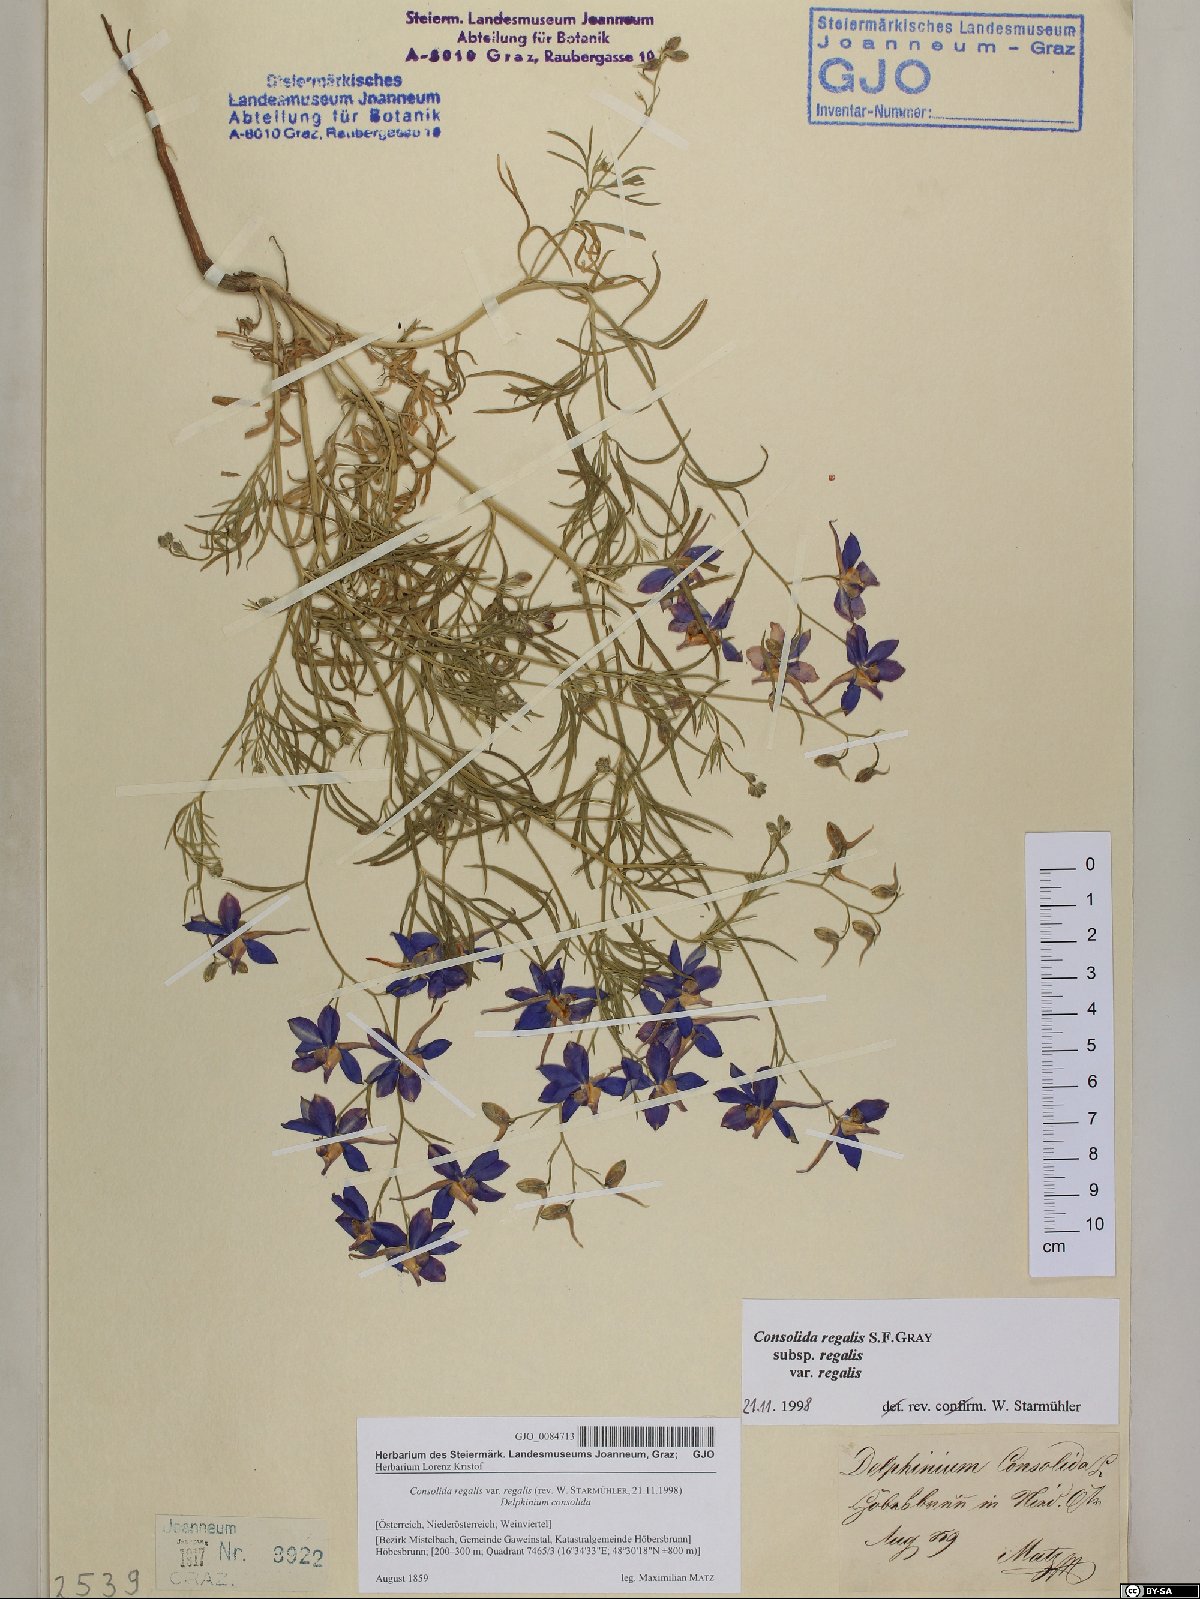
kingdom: Plantae
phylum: Tracheophyta
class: Magnoliopsida
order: Ranunculales
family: Ranunculaceae
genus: Delphinium
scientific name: Delphinium consolida
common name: Branching larkspur
